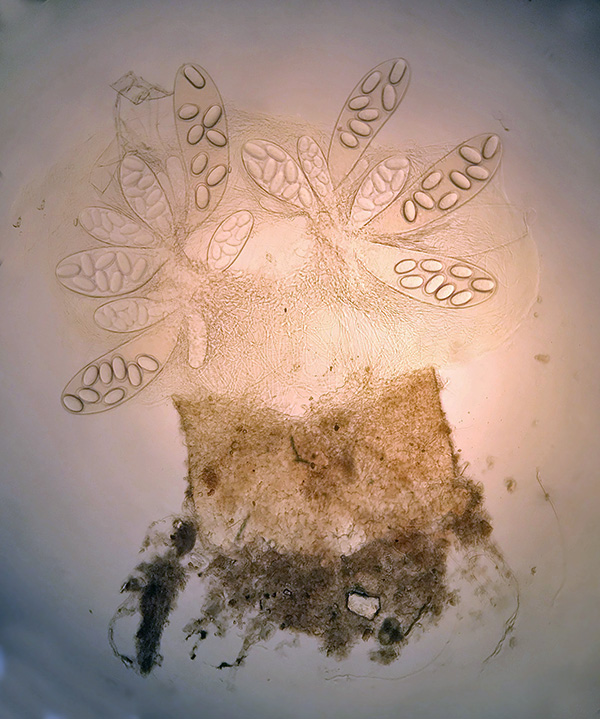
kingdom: Fungi
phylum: Ascomycota
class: Pezizomycetes
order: Pezizales
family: Ascobolaceae
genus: Ascobolus
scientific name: Ascobolus immersus
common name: storsporet prikbæger
